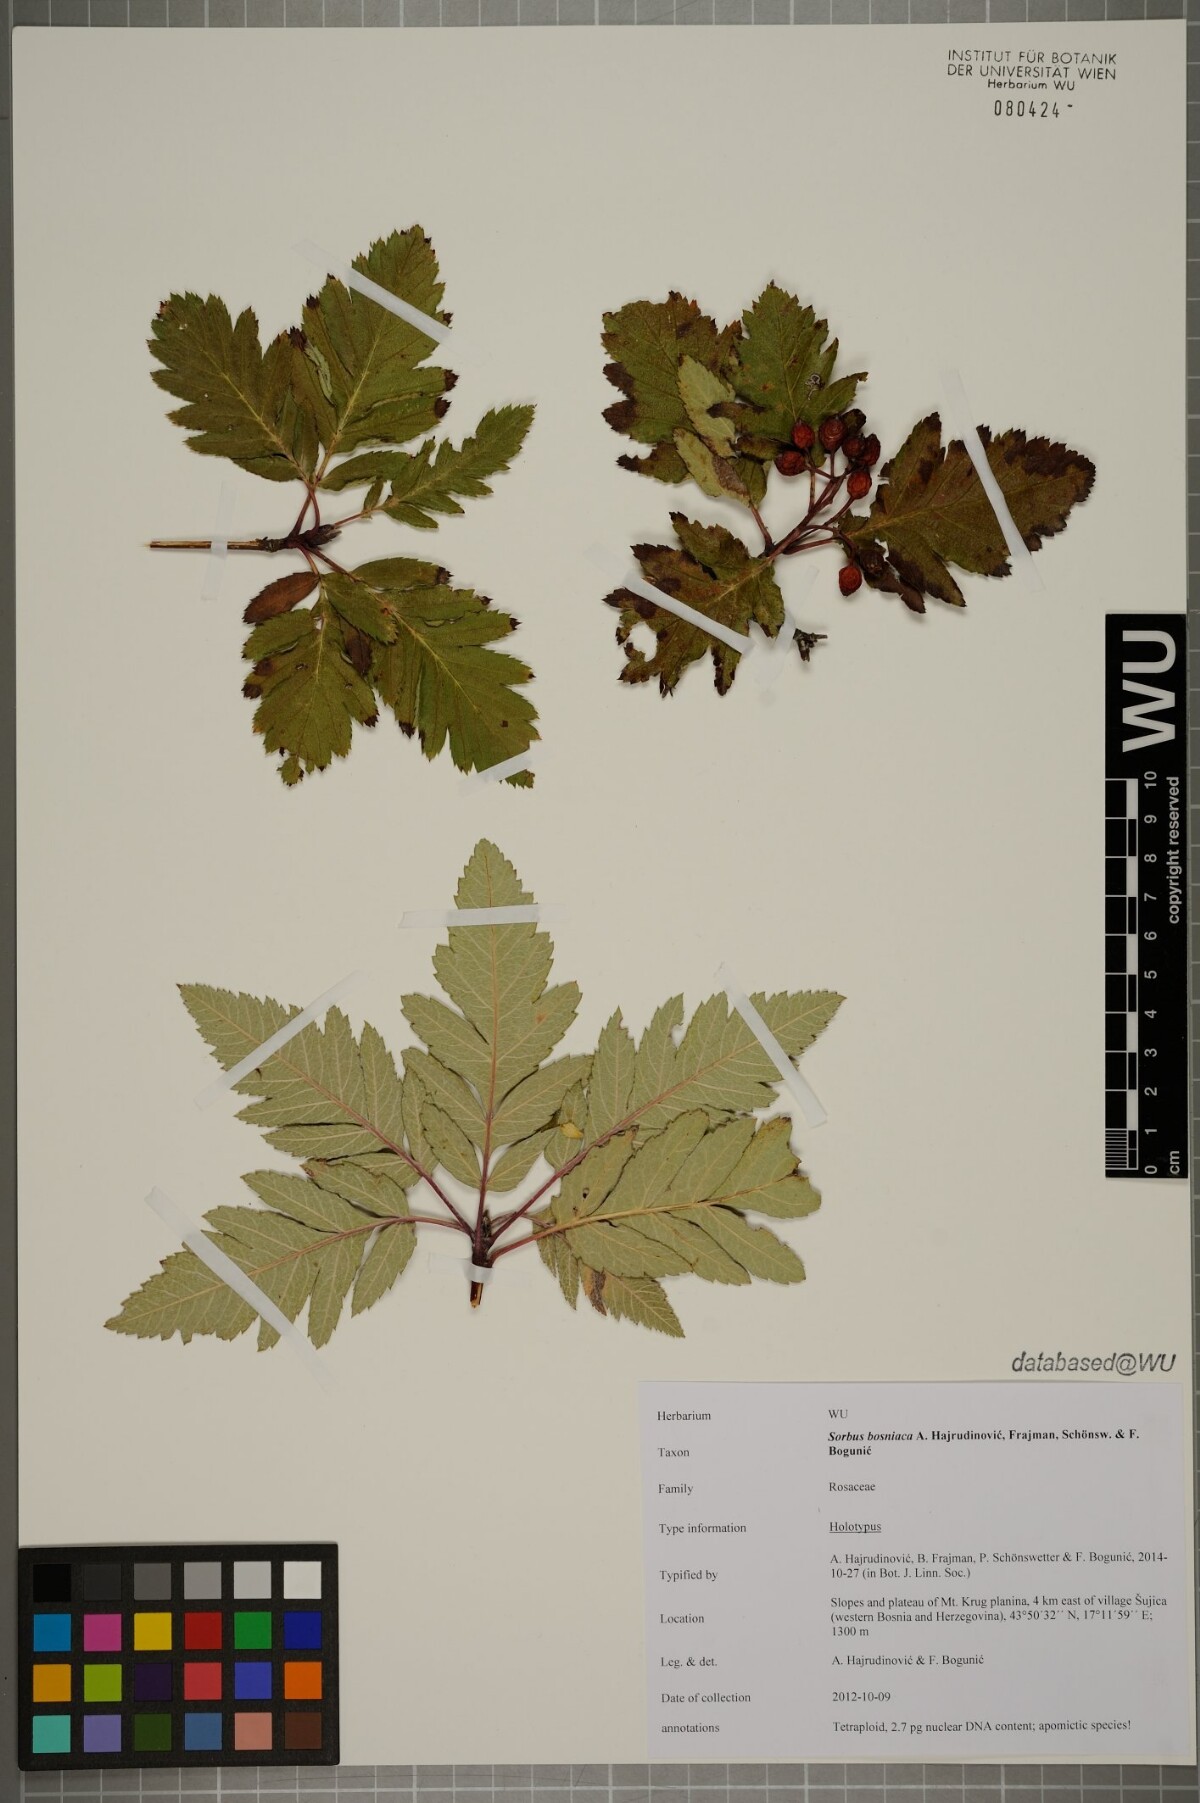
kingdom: Plantae
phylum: Tracheophyta
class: Magnoliopsida
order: Rosales
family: Rosaceae
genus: Hedlundia
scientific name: Hedlundia bosniaca
